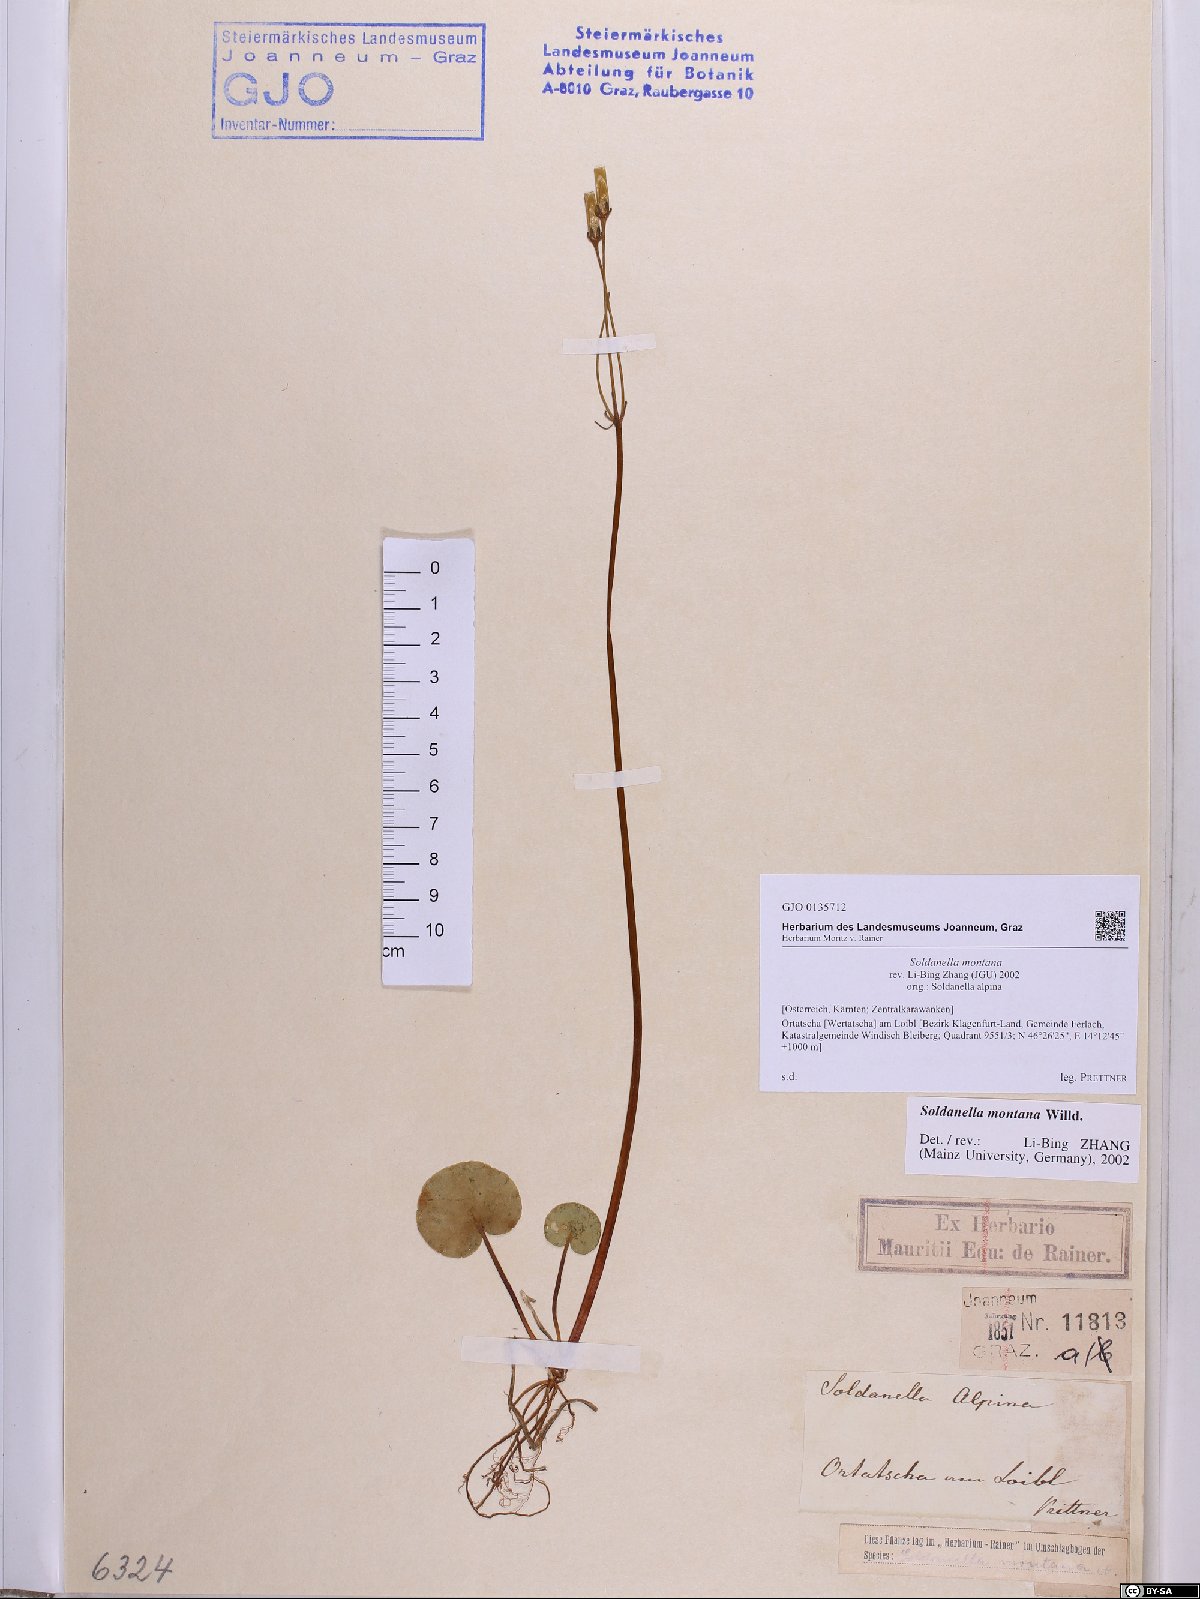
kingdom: Plantae
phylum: Tracheophyta
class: Magnoliopsida
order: Ericales
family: Primulaceae
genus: Soldanella
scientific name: Soldanella montana
